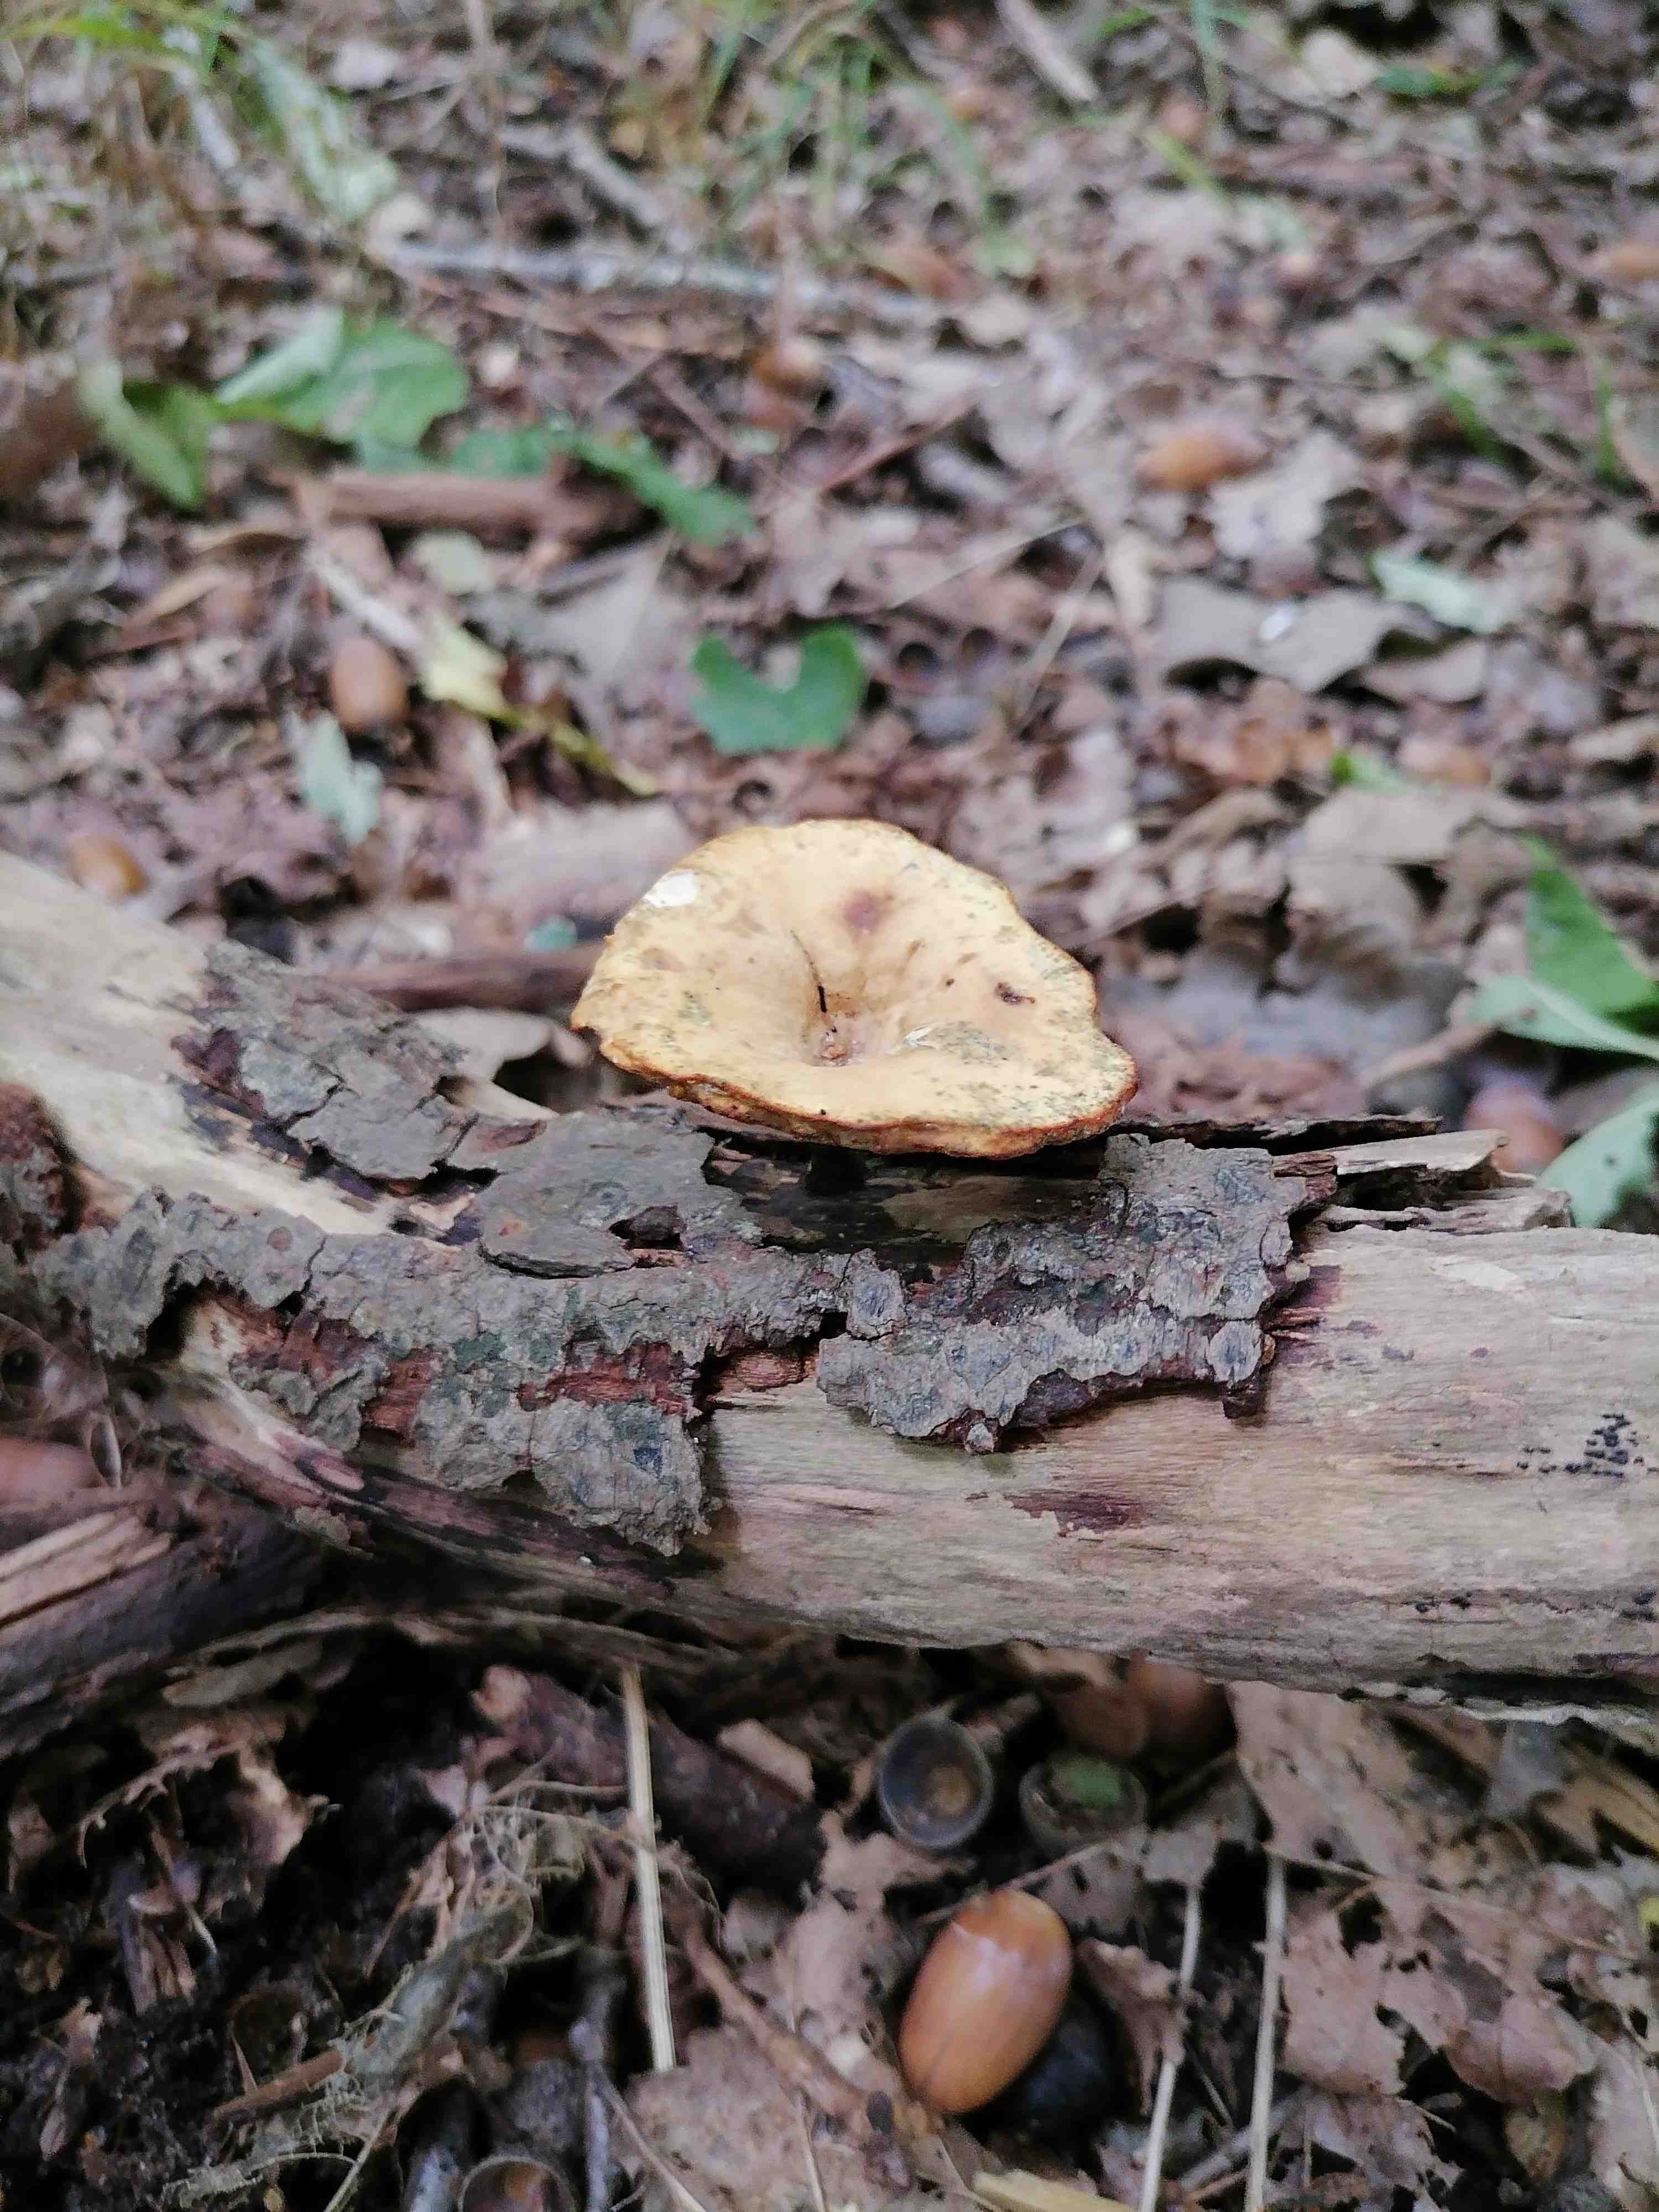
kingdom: Fungi
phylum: Basidiomycota
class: Agaricomycetes
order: Polyporales
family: Polyporaceae
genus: Cerioporus
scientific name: Cerioporus varius
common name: foranderlig stilkporesvamp
